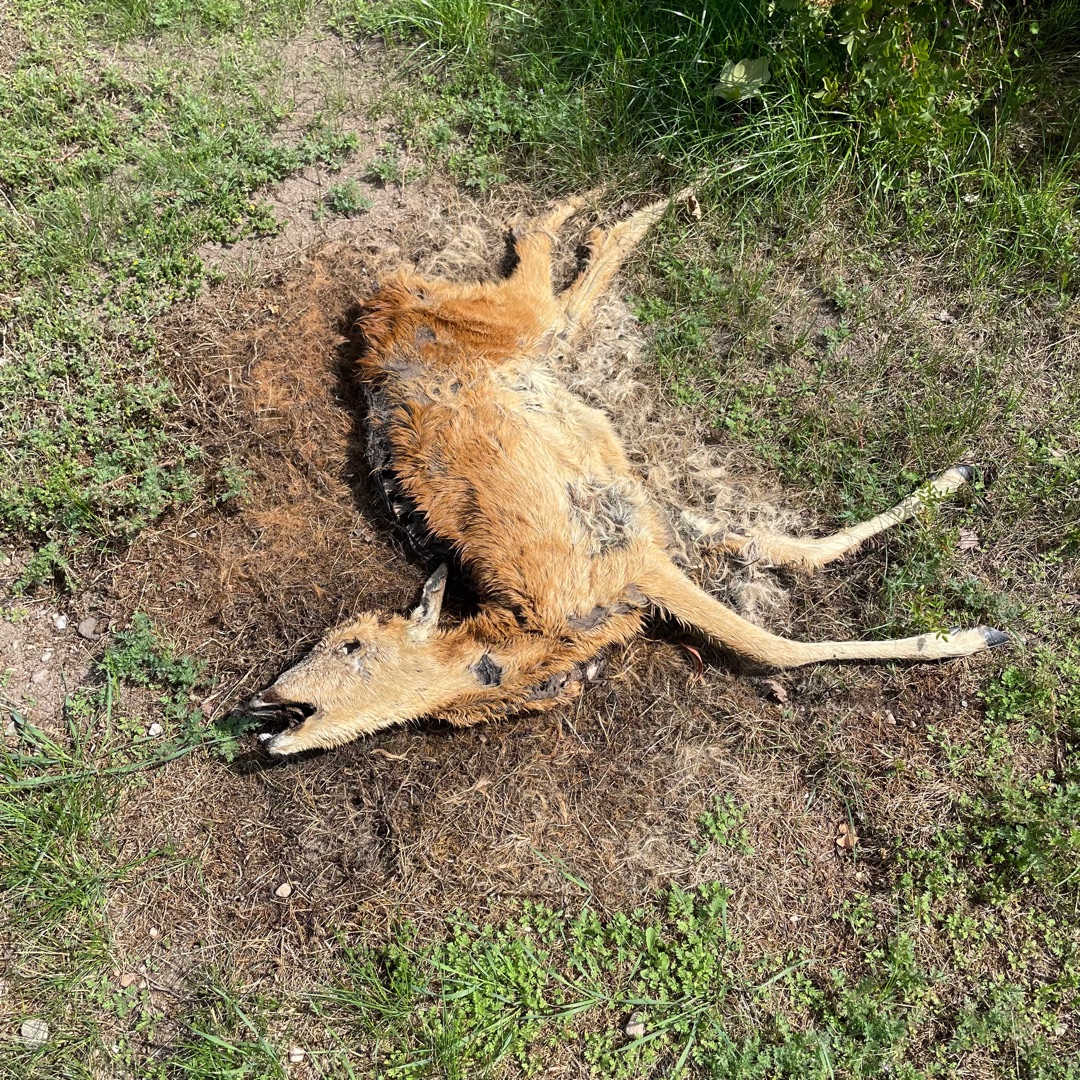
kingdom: Animalia
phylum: Chordata
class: Mammalia
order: Artiodactyla
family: Cervidae
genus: Capreolus
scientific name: Capreolus capreolus
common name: Rådyr
